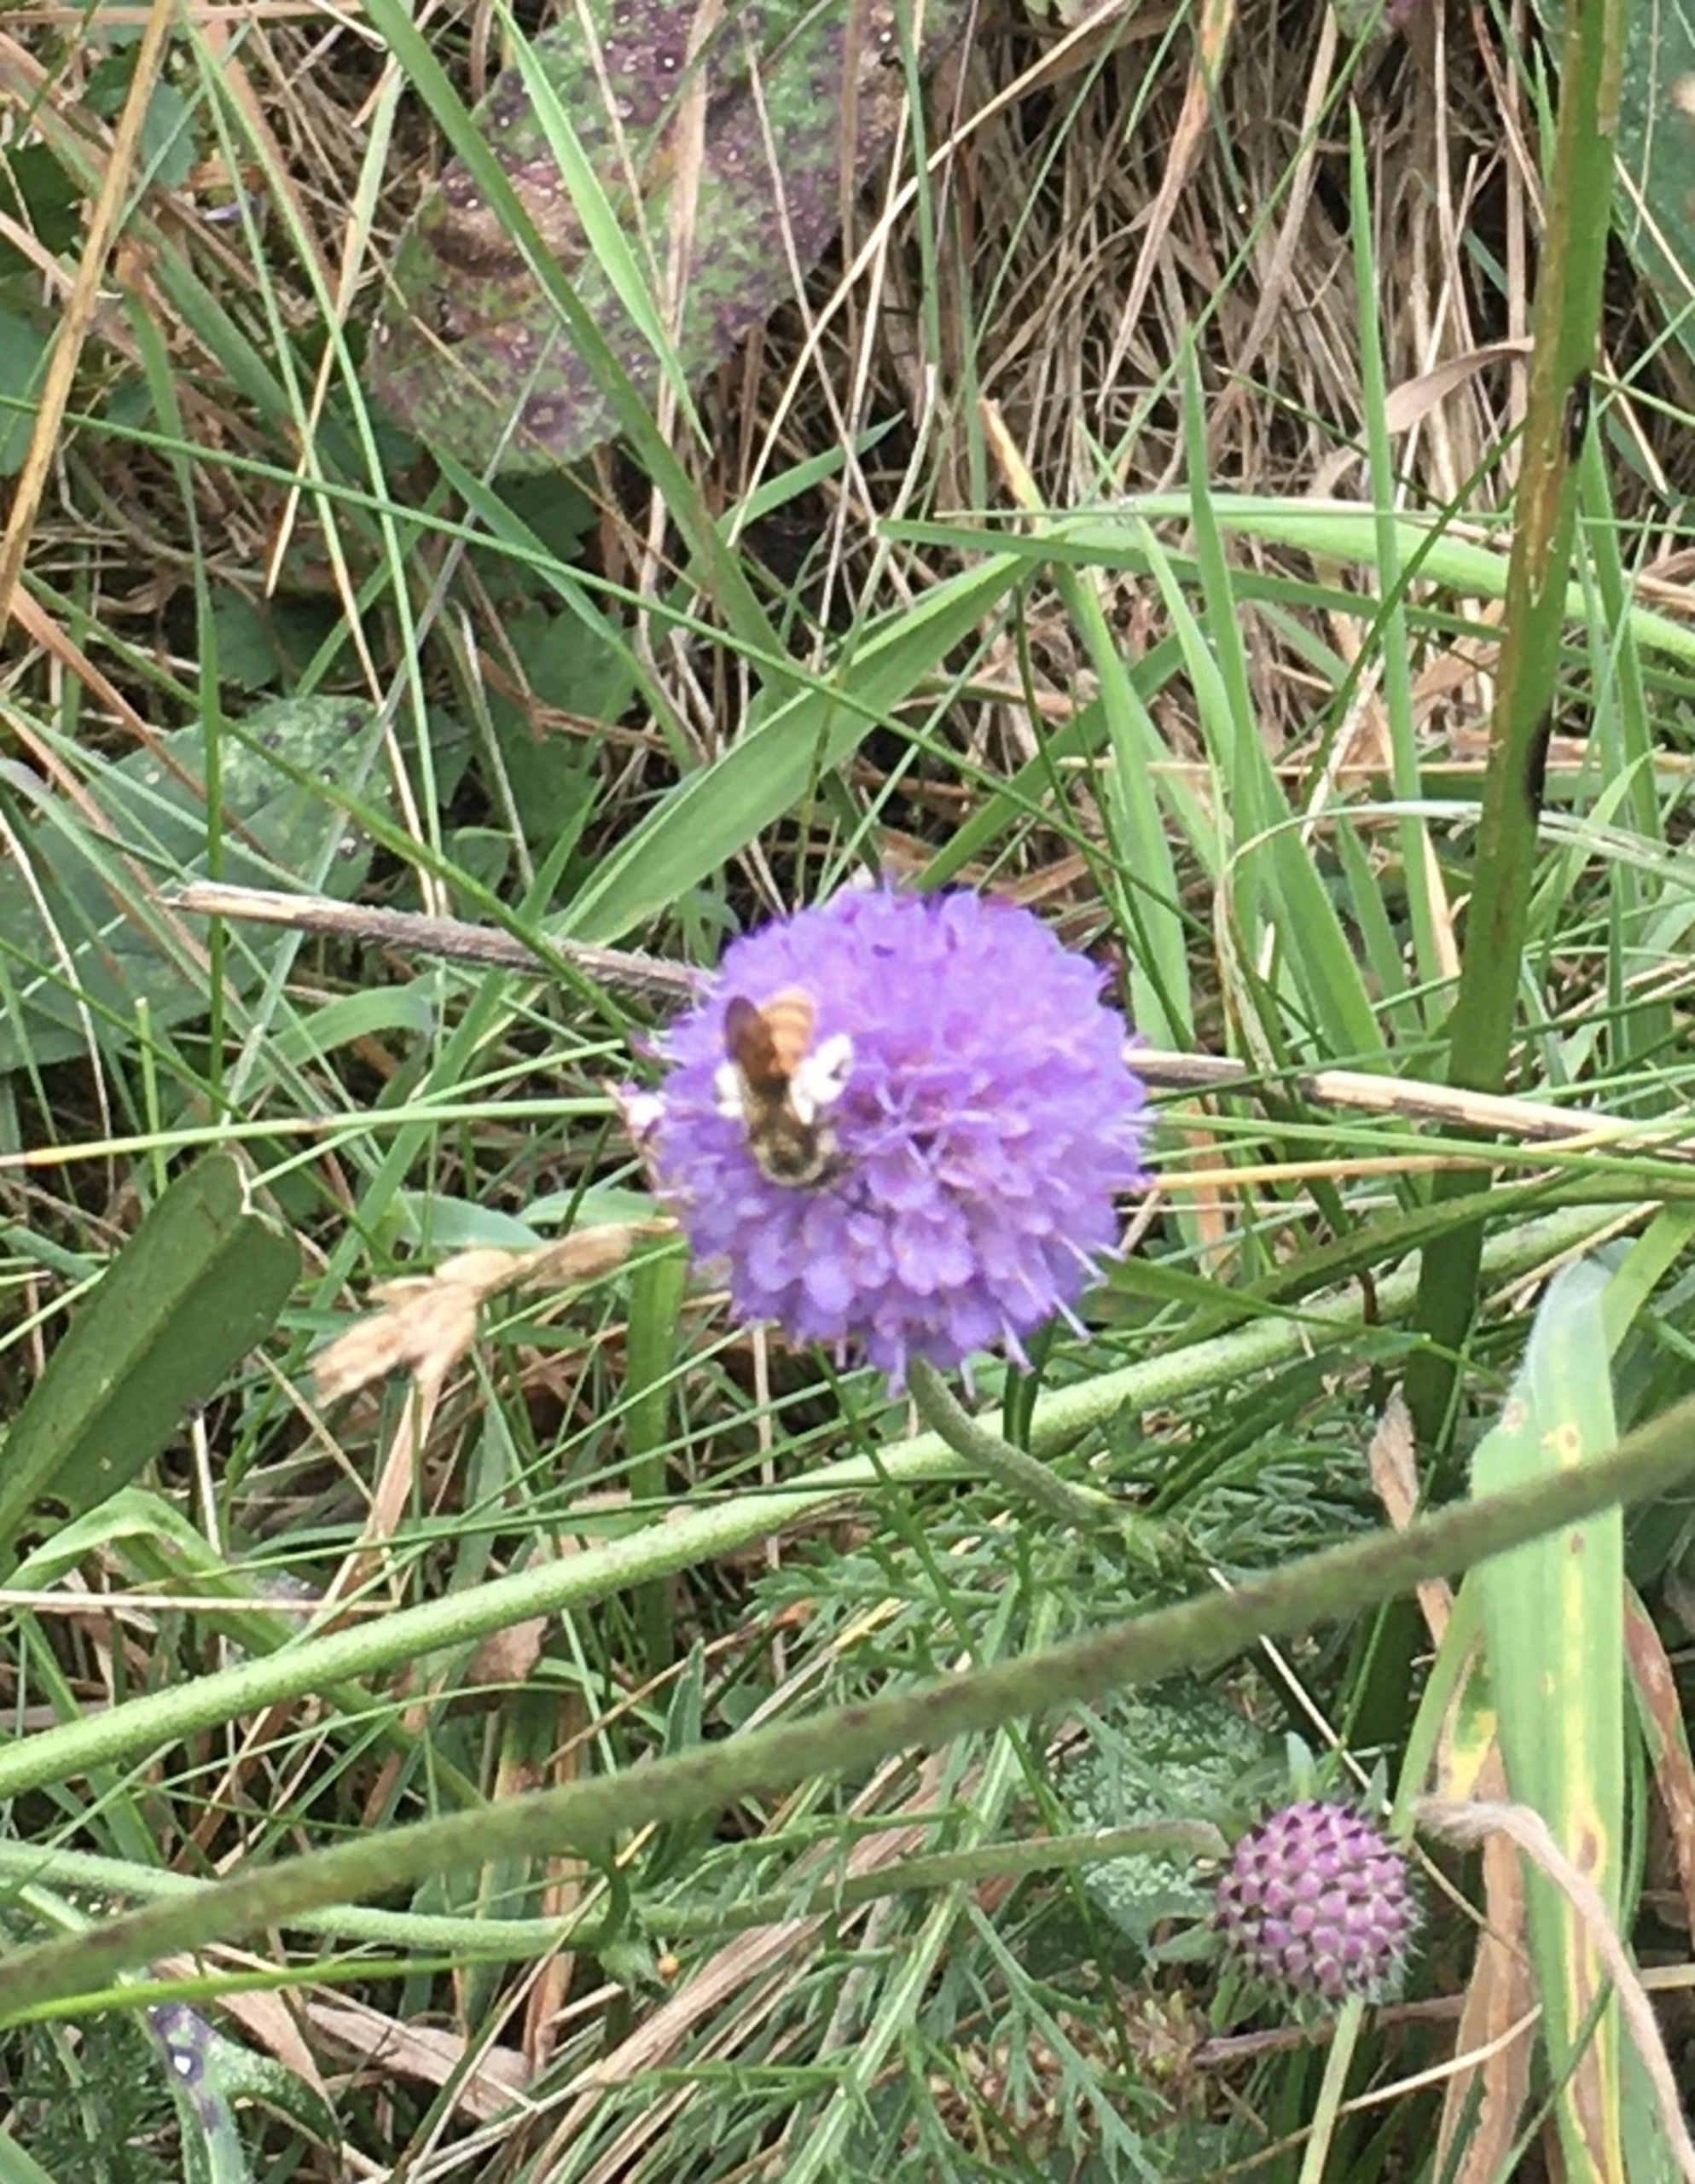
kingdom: Animalia
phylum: Arthropoda
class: Insecta
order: Hymenoptera
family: Andrenidae
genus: Andrena
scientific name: Andrena marginata
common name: Orange jordbi
